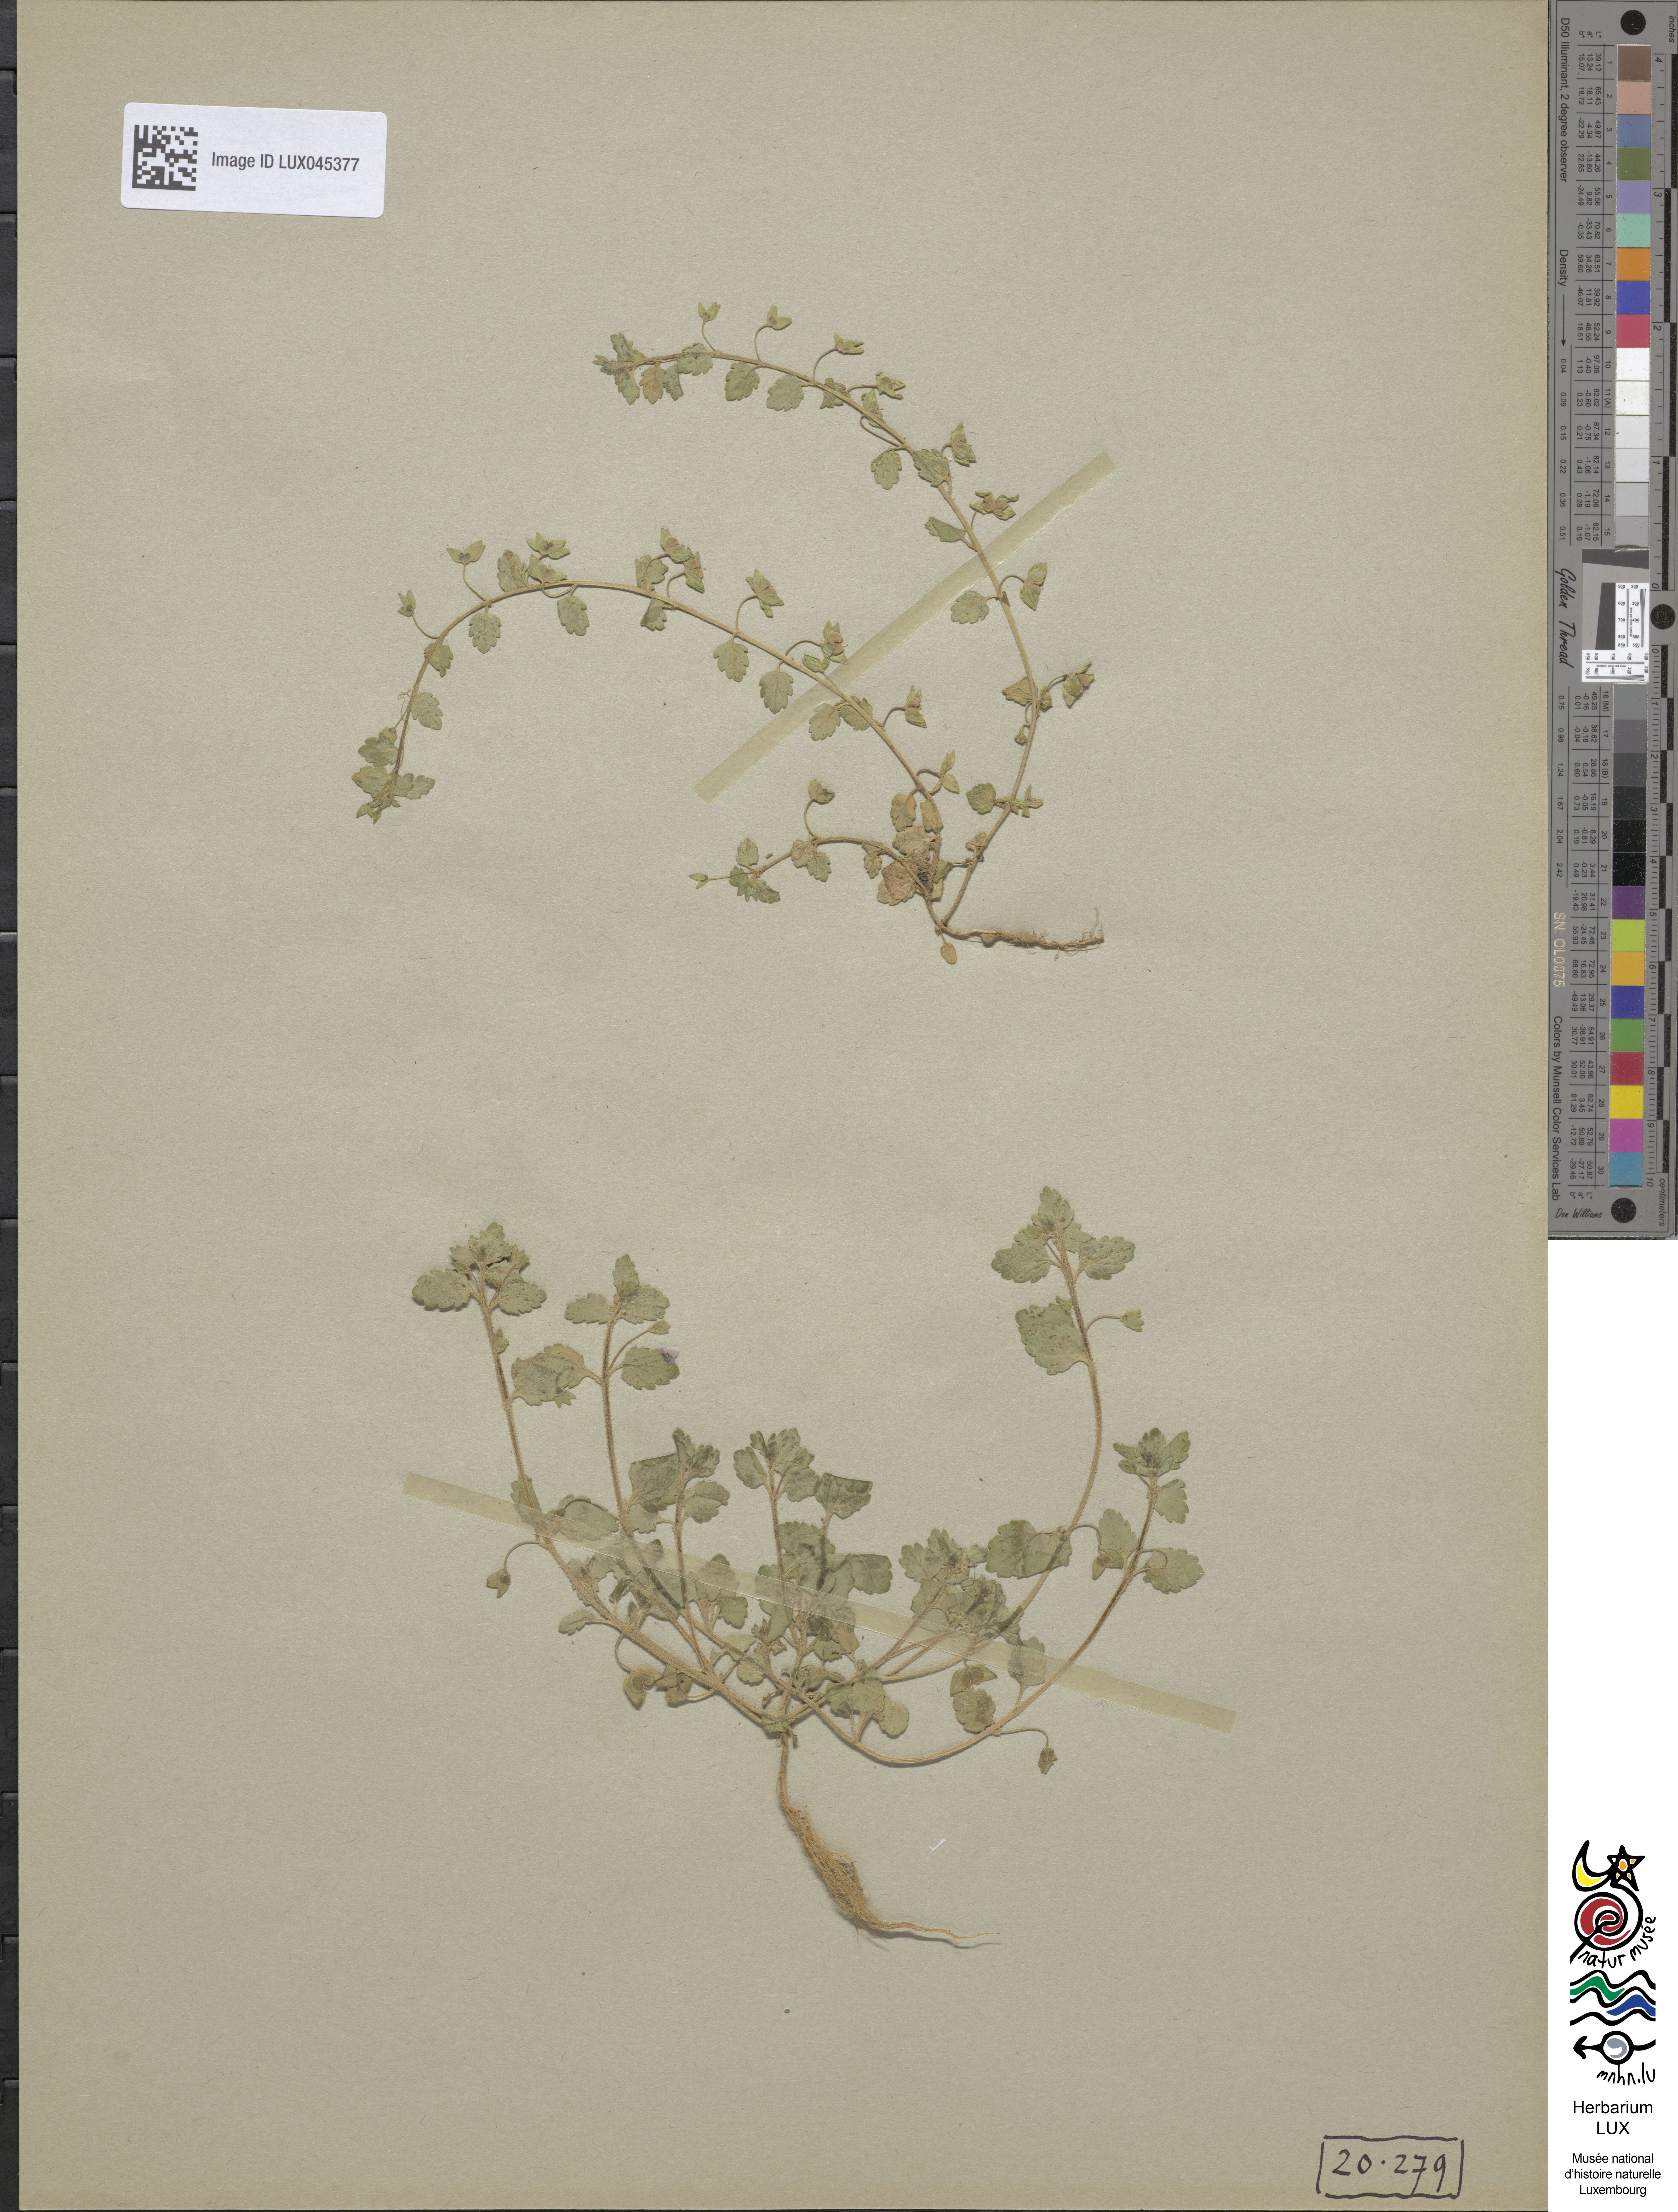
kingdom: Plantae
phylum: Tracheophyta
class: Magnoliopsida
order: Lamiales
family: Plantaginaceae
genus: Veronica
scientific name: Veronica polita
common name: Grey field-speedwell
